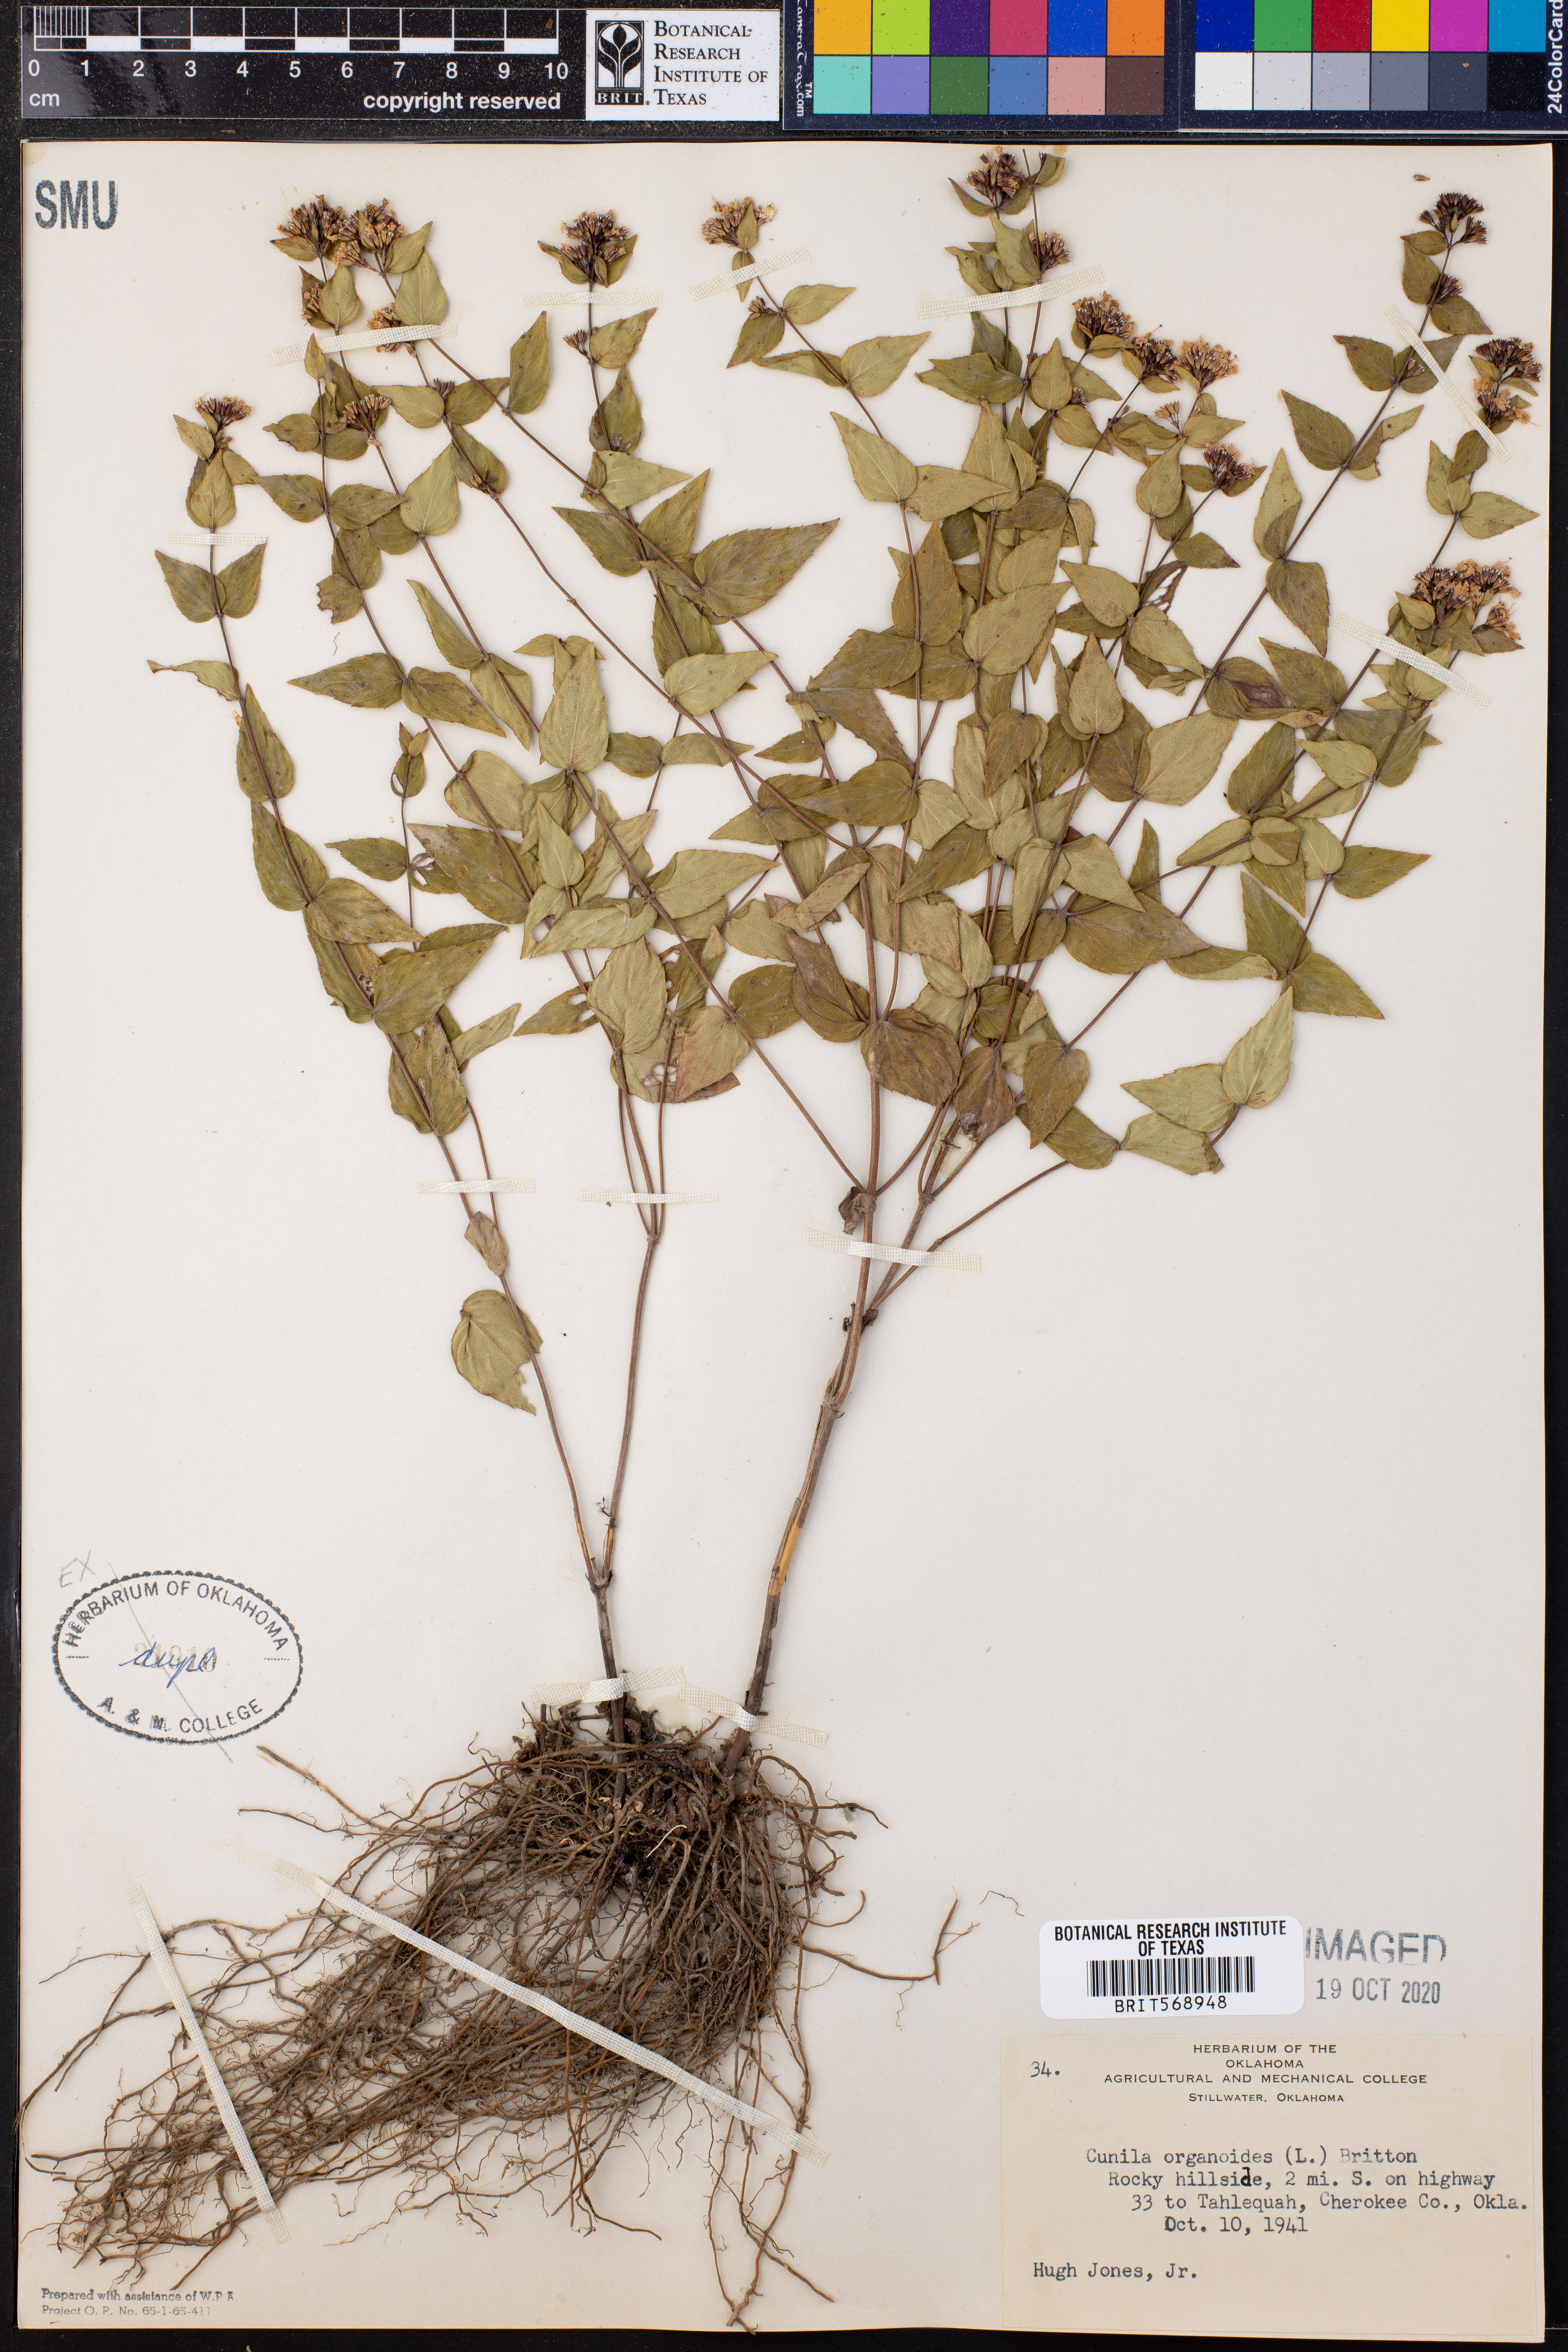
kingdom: Plantae
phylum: Tracheophyta
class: Magnoliopsida
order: Lamiales
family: Lamiaceae
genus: Cunila
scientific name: Cunila origanoides
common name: American dittany
